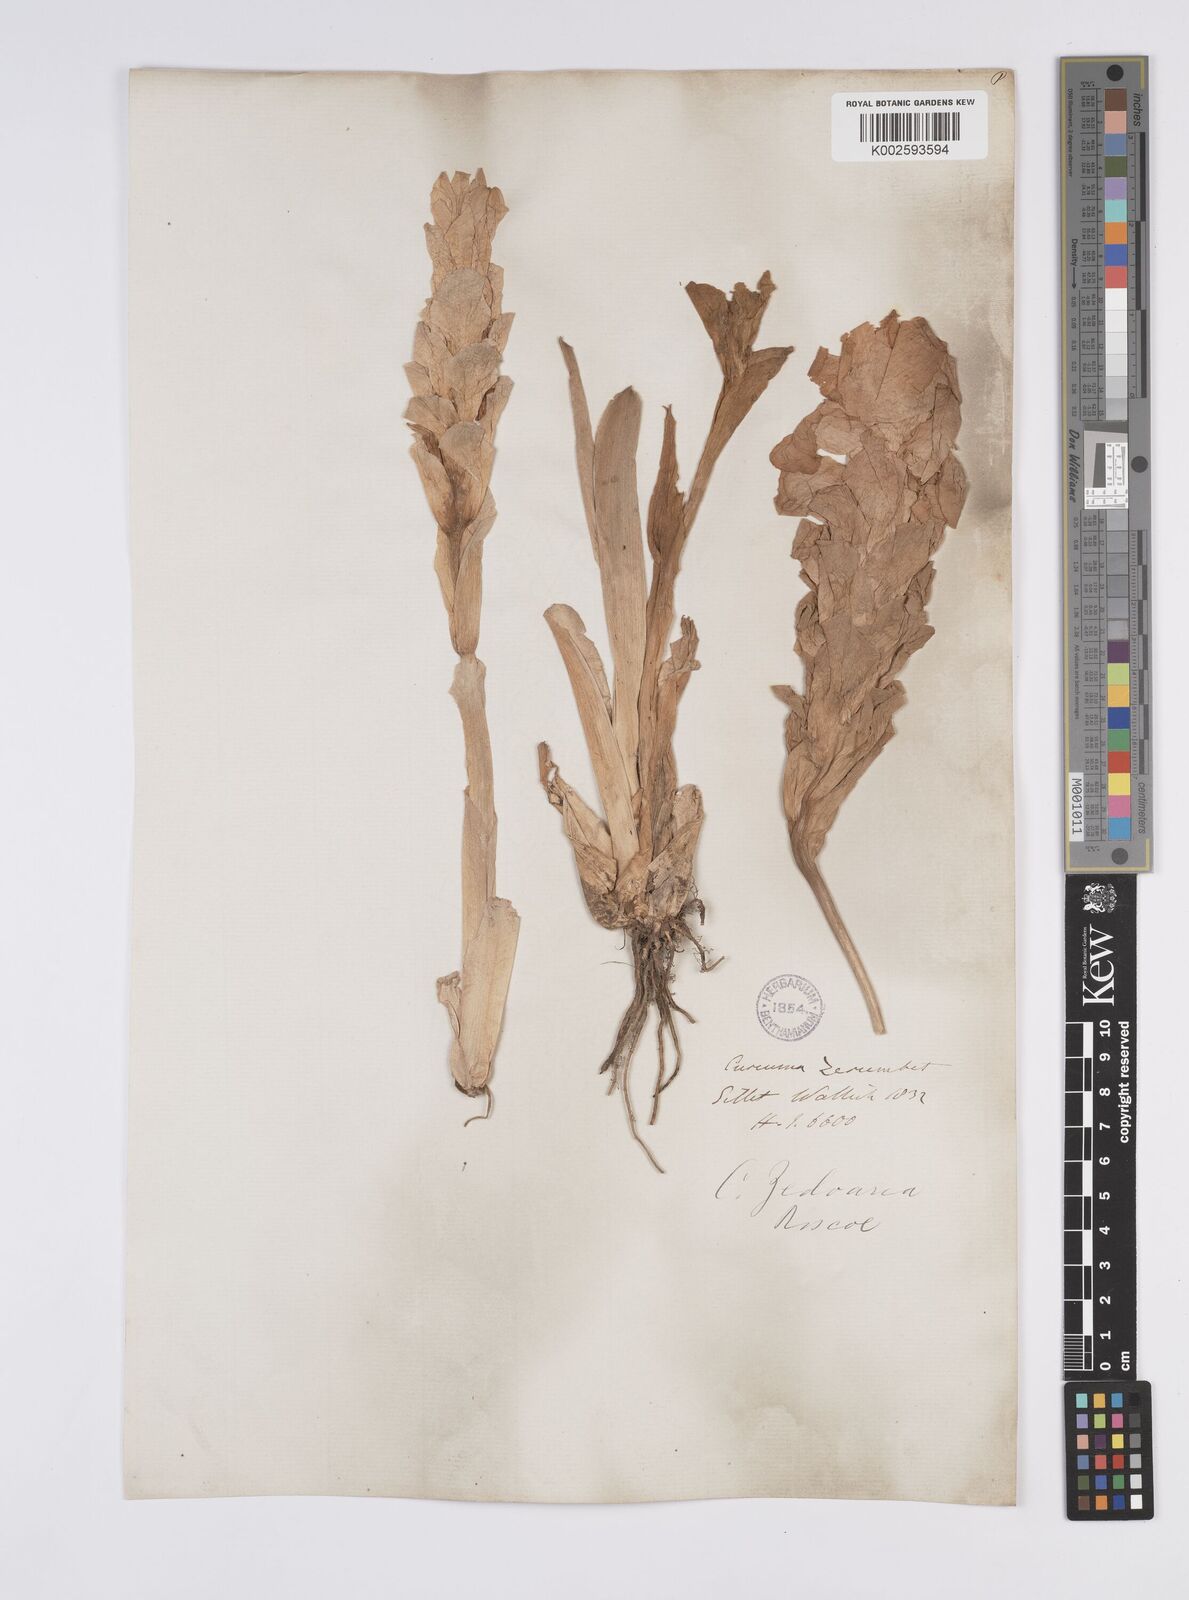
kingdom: Plantae
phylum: Tracheophyta
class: Liliopsida
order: Zingiberales
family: Zingiberaceae
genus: Curcuma
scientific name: Curcuma aromatica
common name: Wild turmeric
